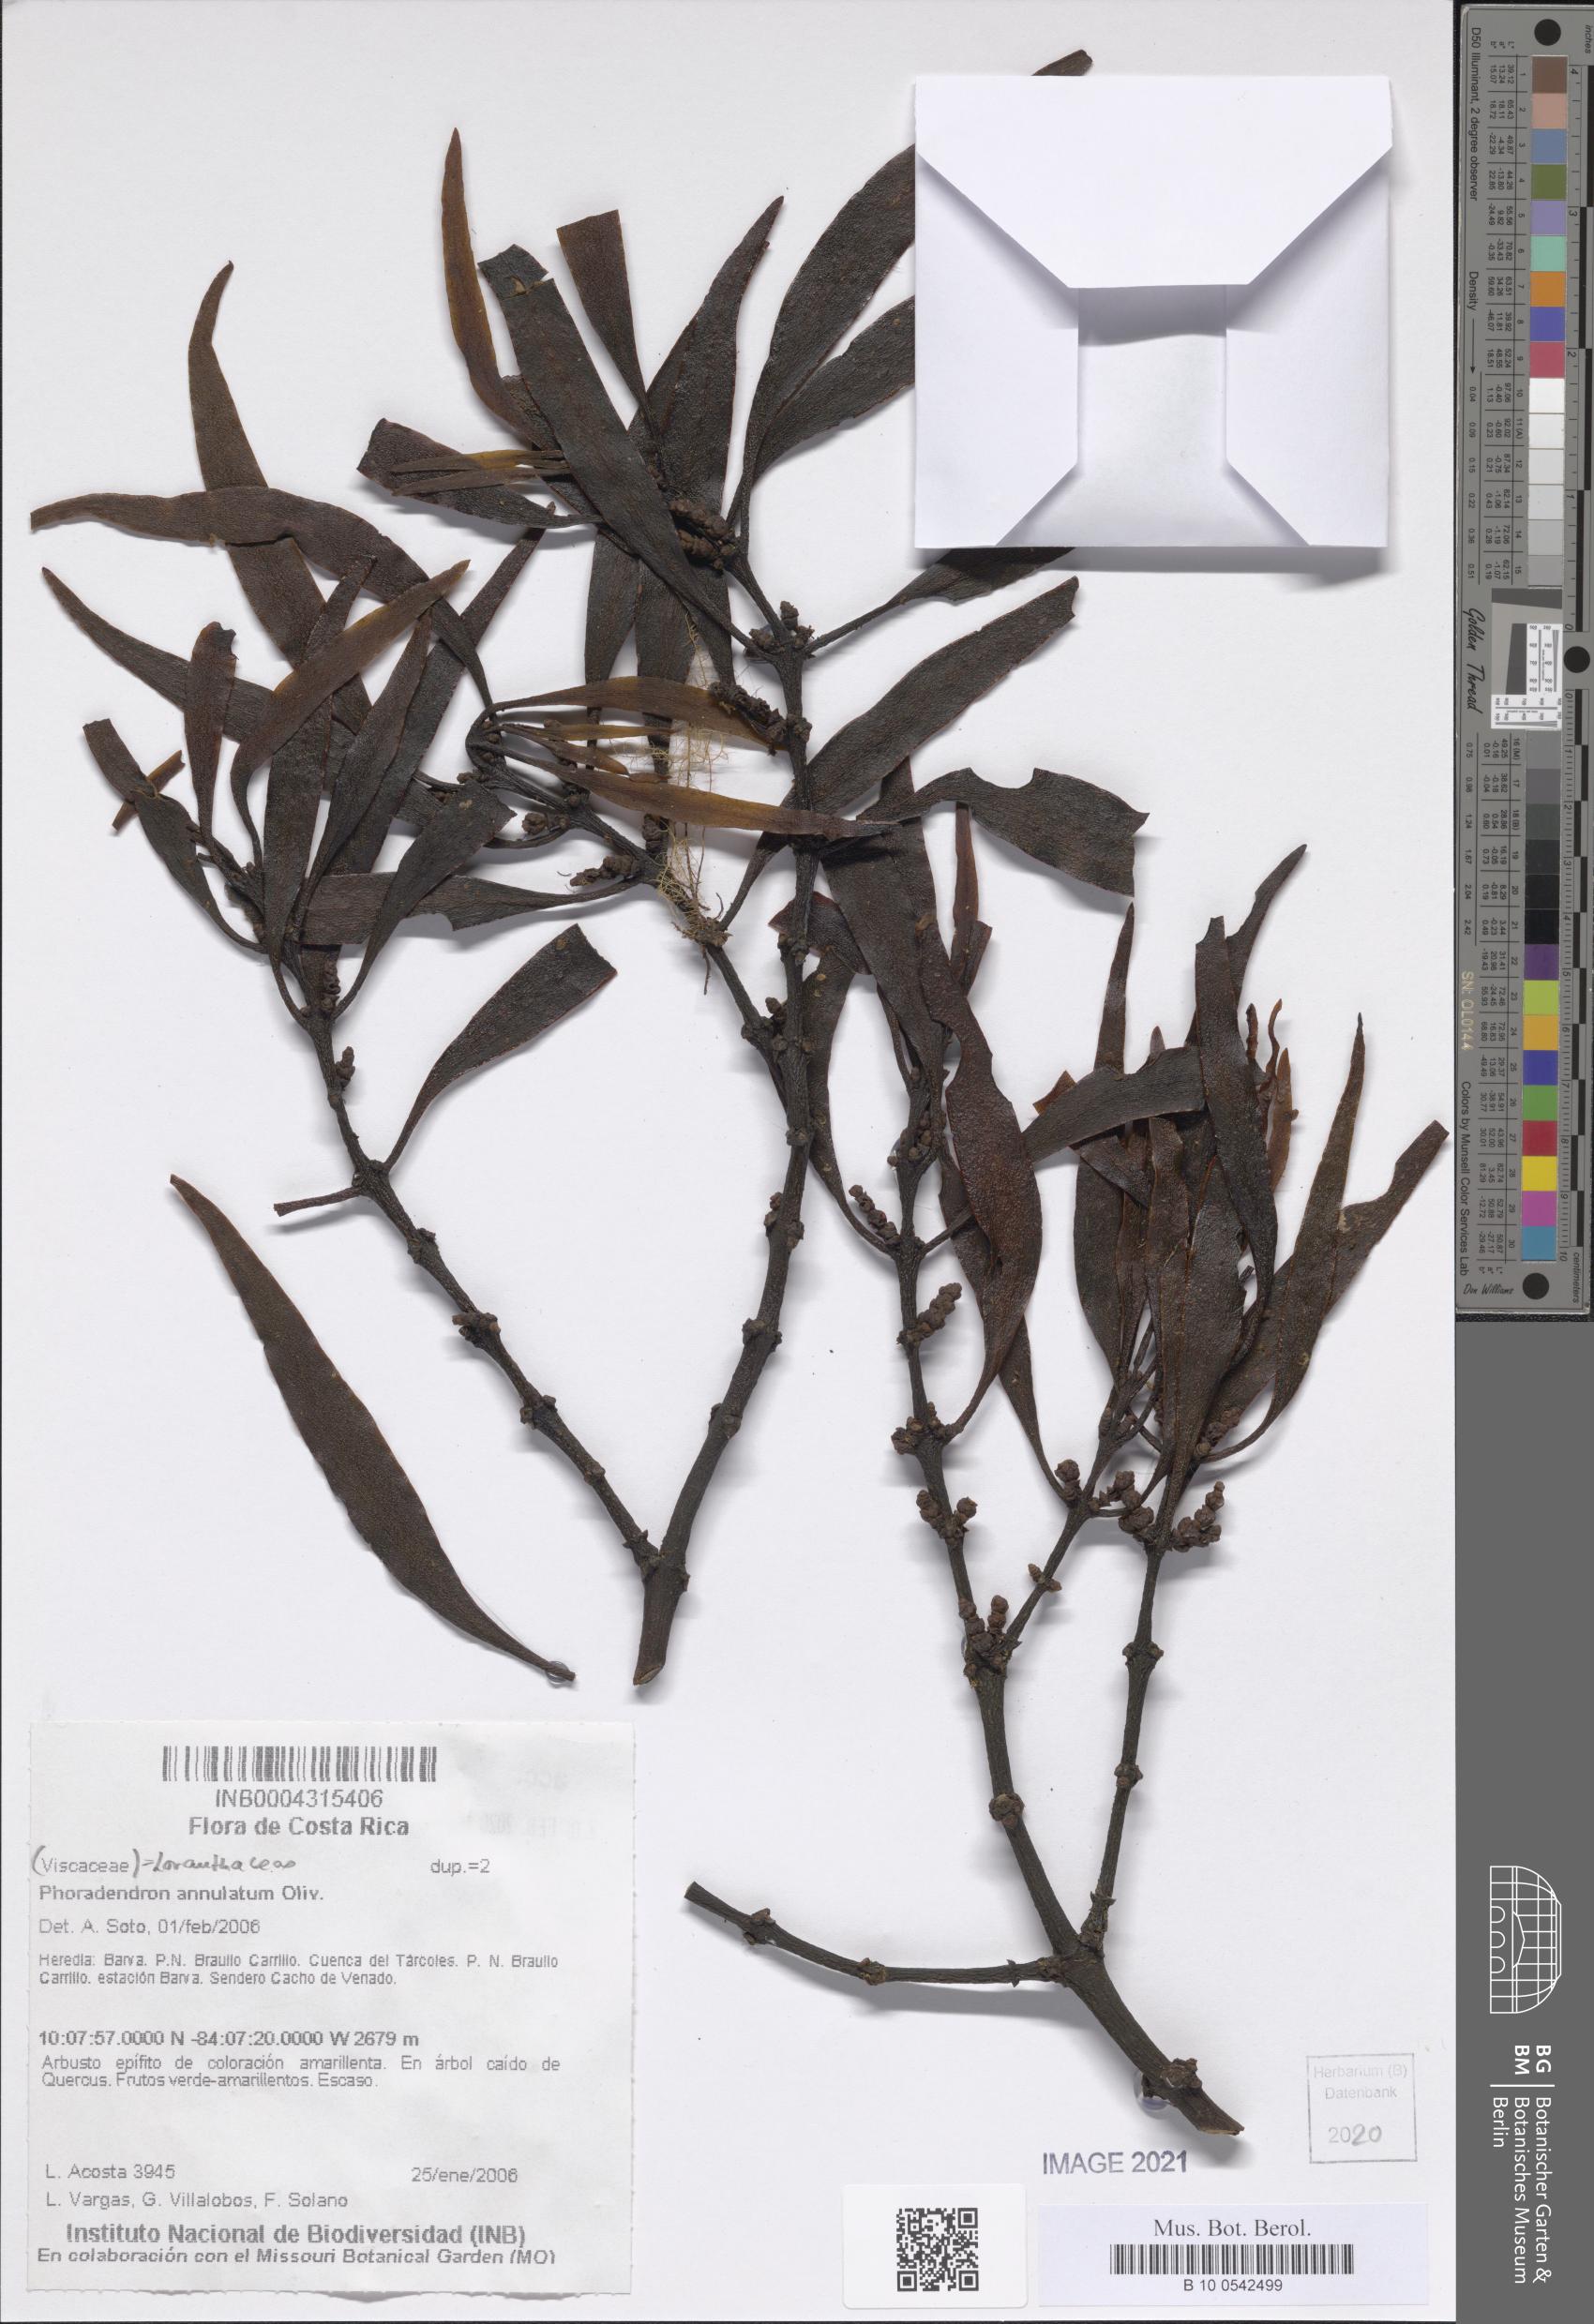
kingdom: Plantae
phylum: Tracheophyta
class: Magnoliopsida
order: Santalales
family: Viscaceae
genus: Phoradendron
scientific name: Phoradendron annulatum
